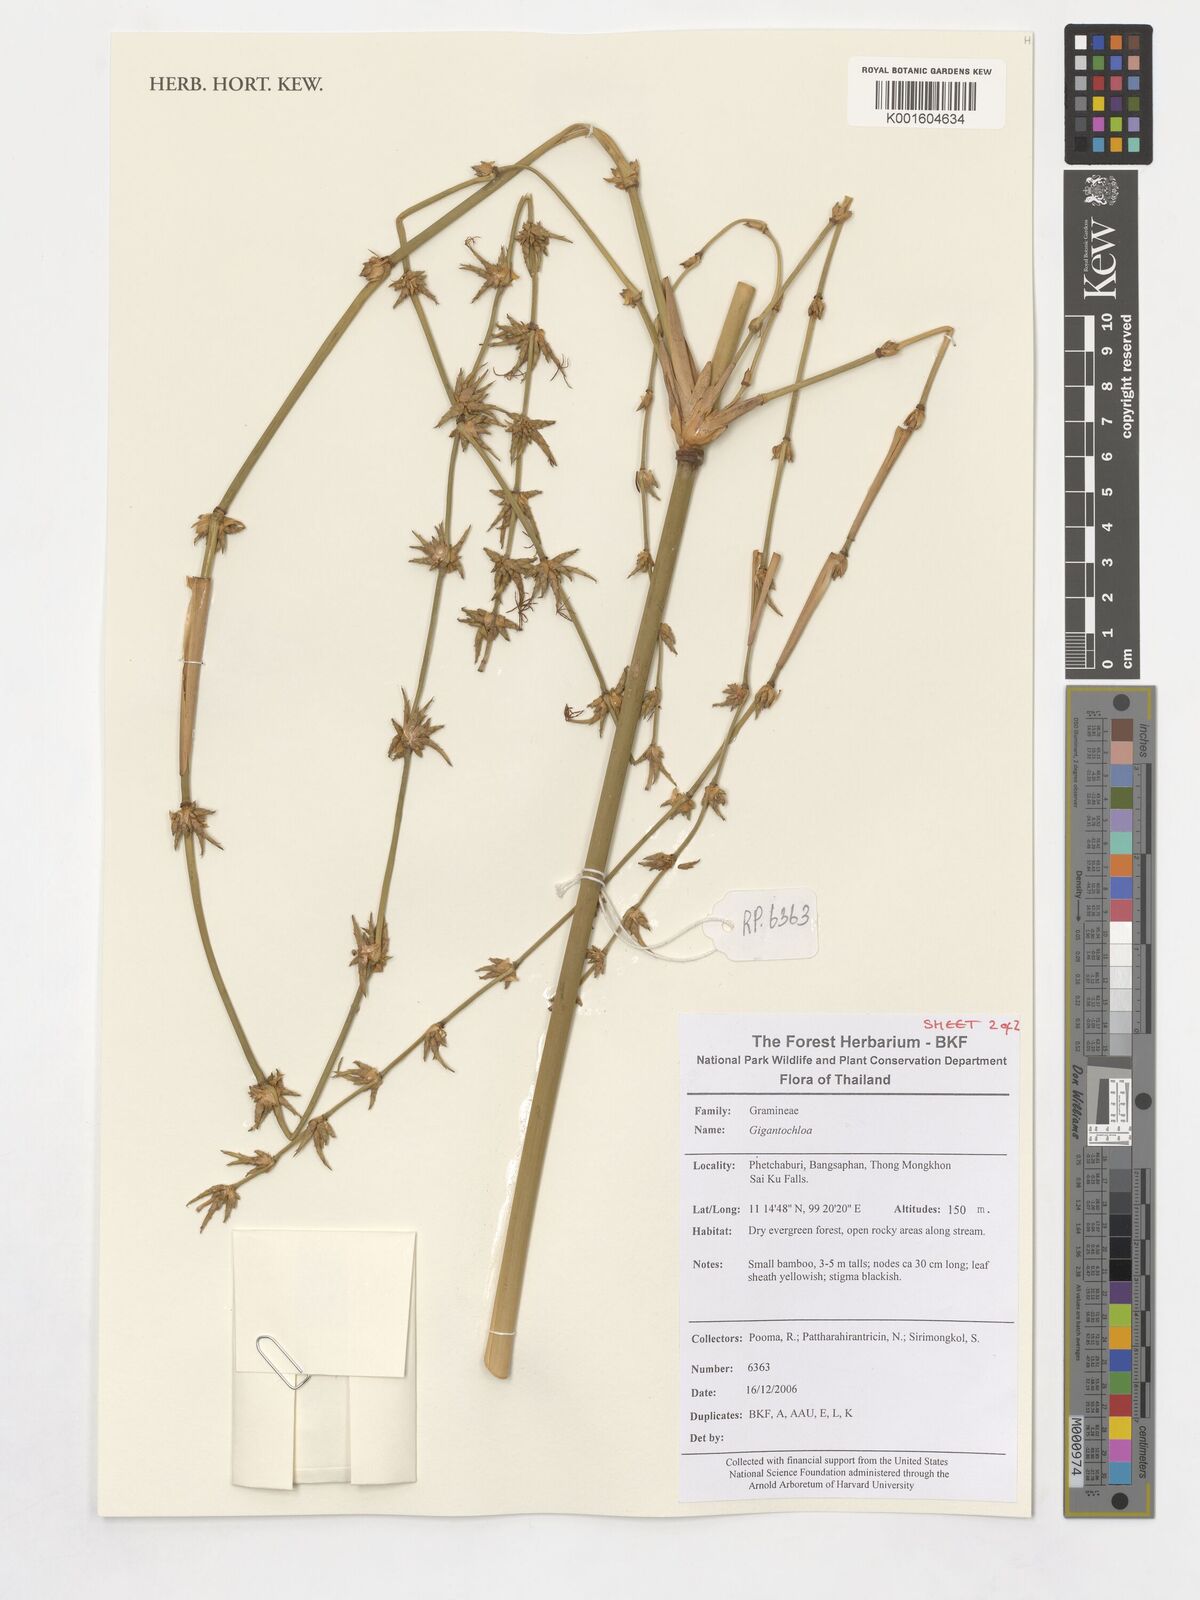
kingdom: Plantae
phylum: Tracheophyta
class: Liliopsida
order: Poales
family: Poaceae
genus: Gigantochloa
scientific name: Gigantochloa
